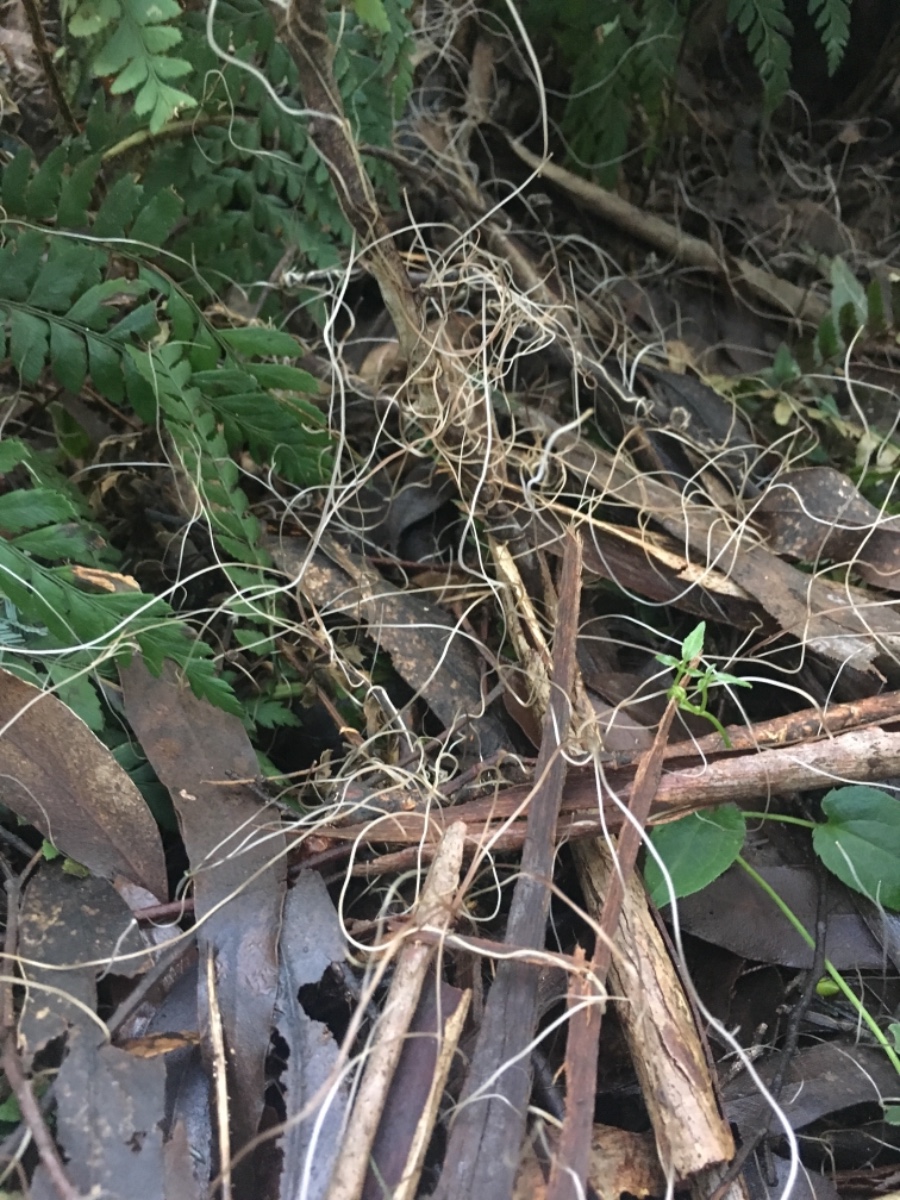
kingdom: Fungi
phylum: Basidiomycota
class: Agaricomycetes
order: Agaricales
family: Mycenaceae
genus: Mycena
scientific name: Mycena cystidiosa
